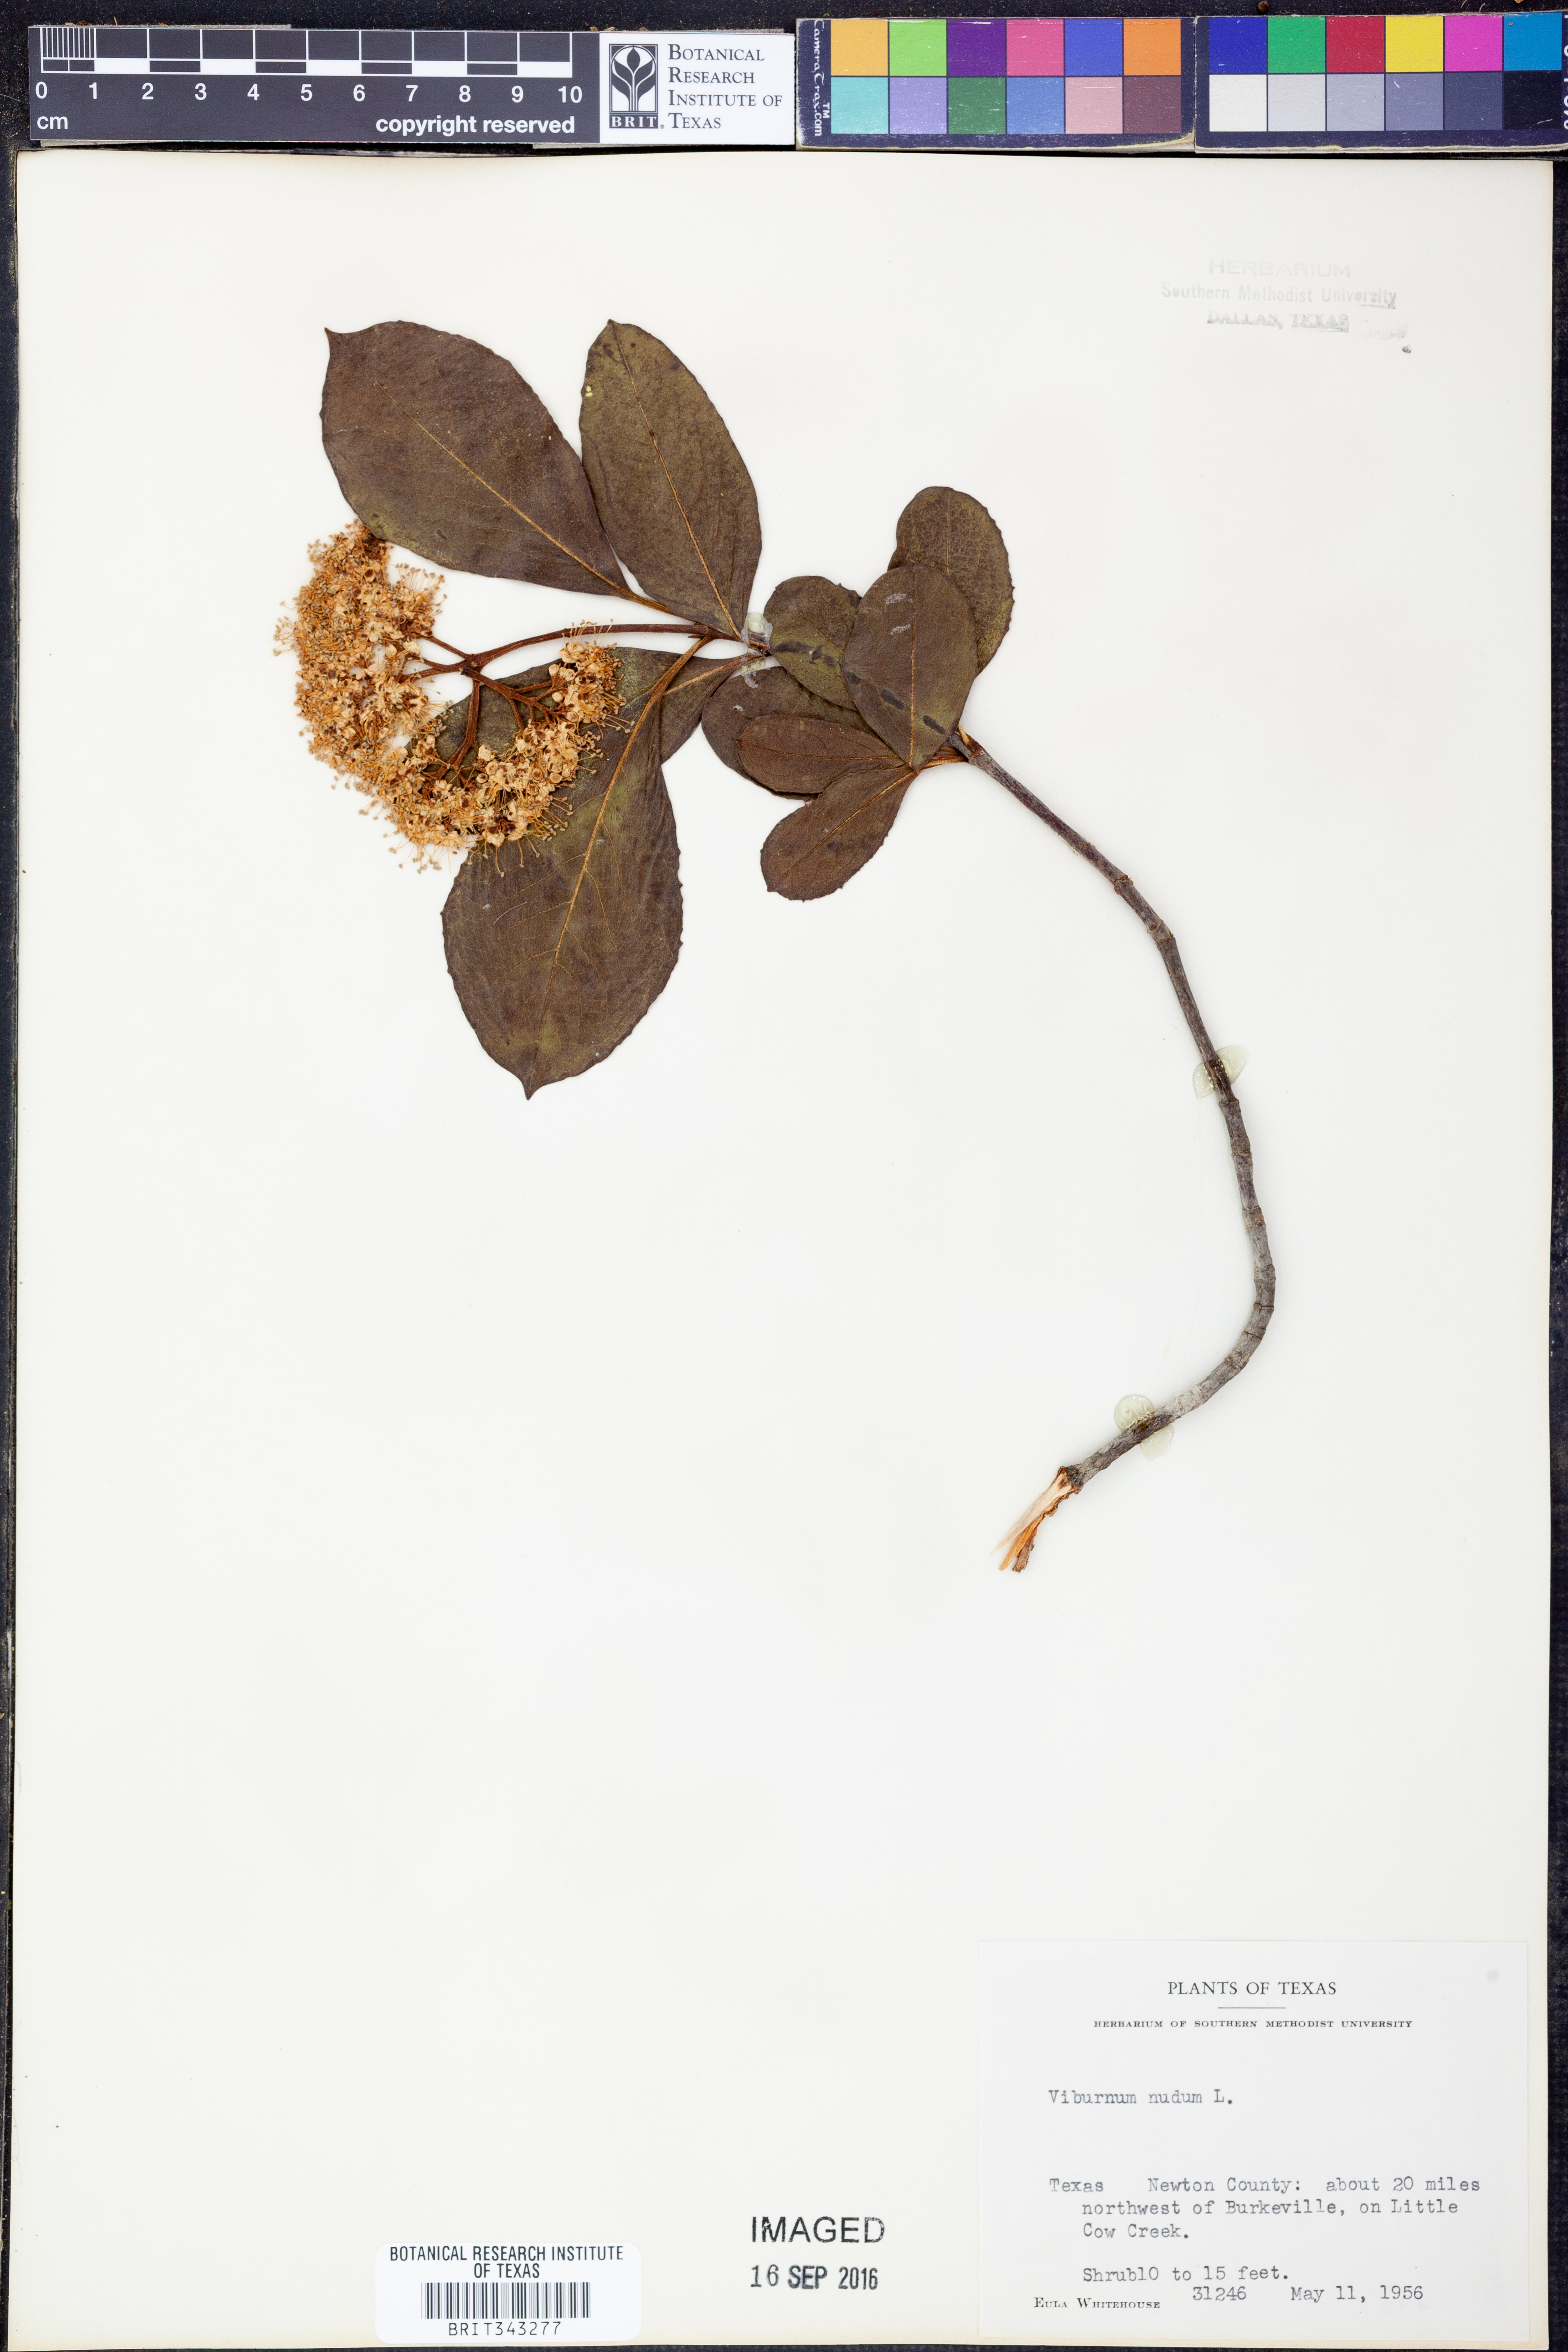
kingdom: Plantae
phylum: Tracheophyta
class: Magnoliopsida
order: Dipsacales
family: Viburnaceae
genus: Viburnum
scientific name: Viburnum nudum
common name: Possum haw
